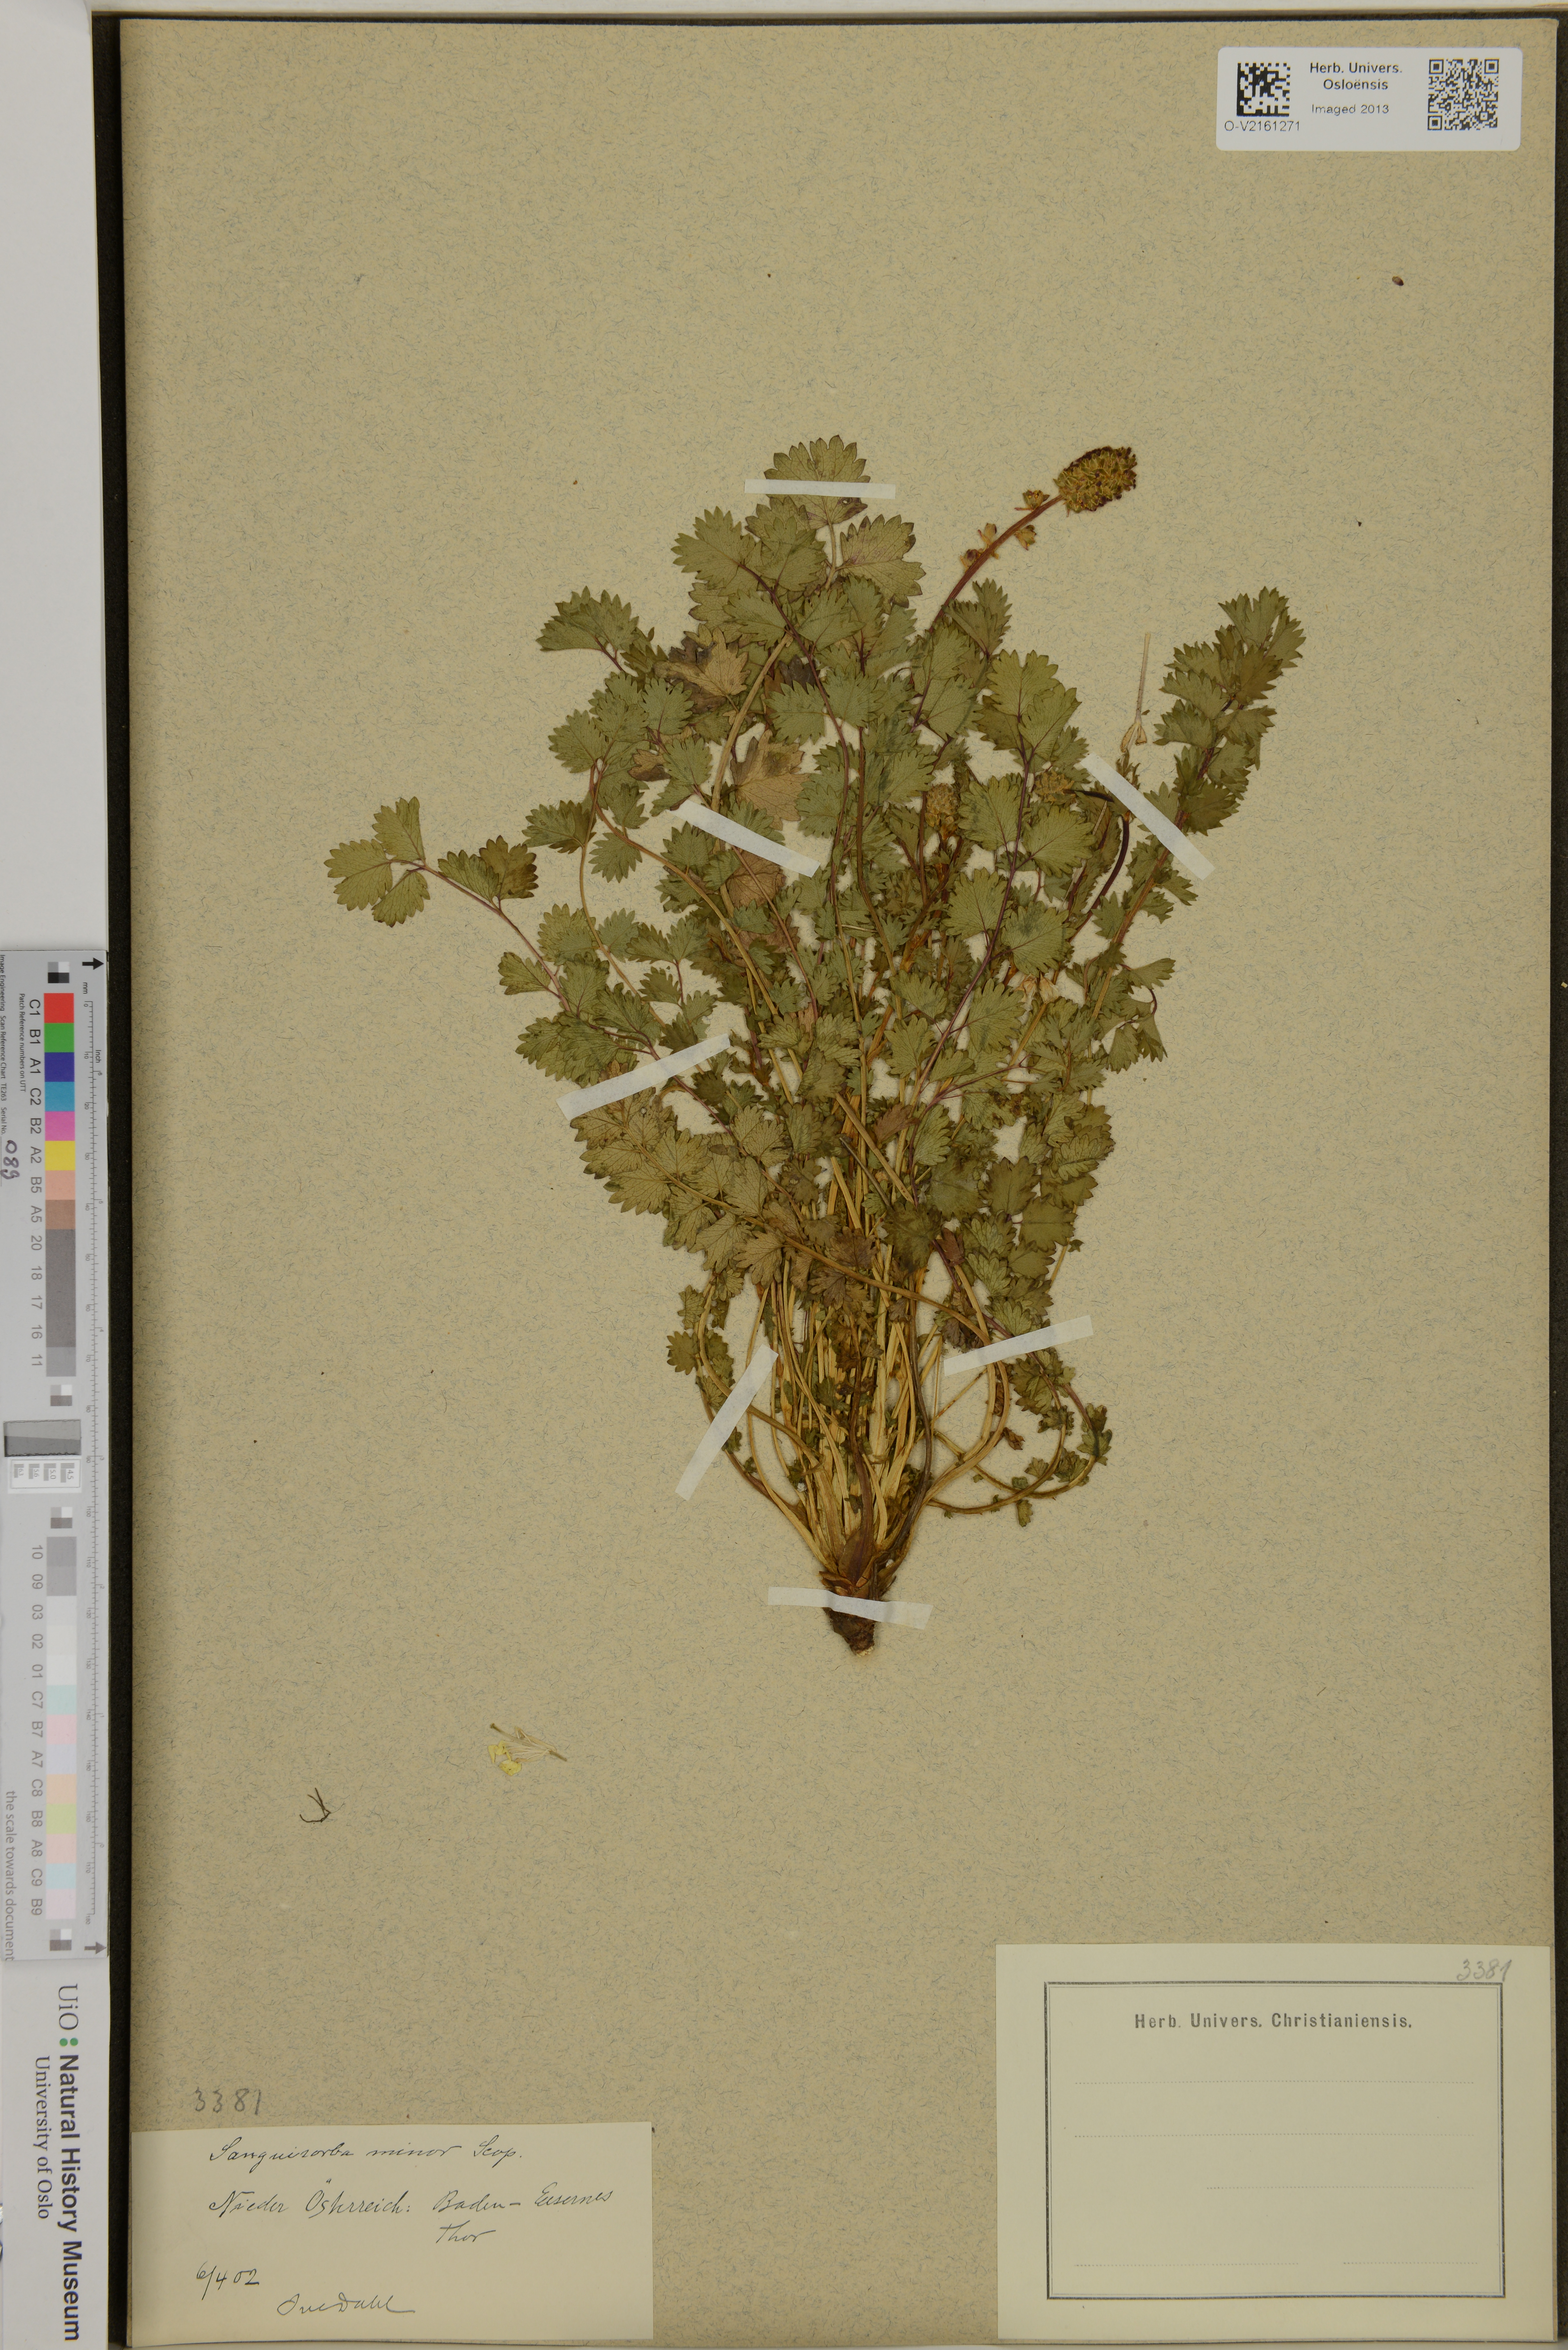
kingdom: Plantae
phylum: Tracheophyta
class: Magnoliopsida
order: Rosales
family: Rosaceae
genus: Poterium
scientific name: Poterium sanguisorba
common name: Salad burnet
